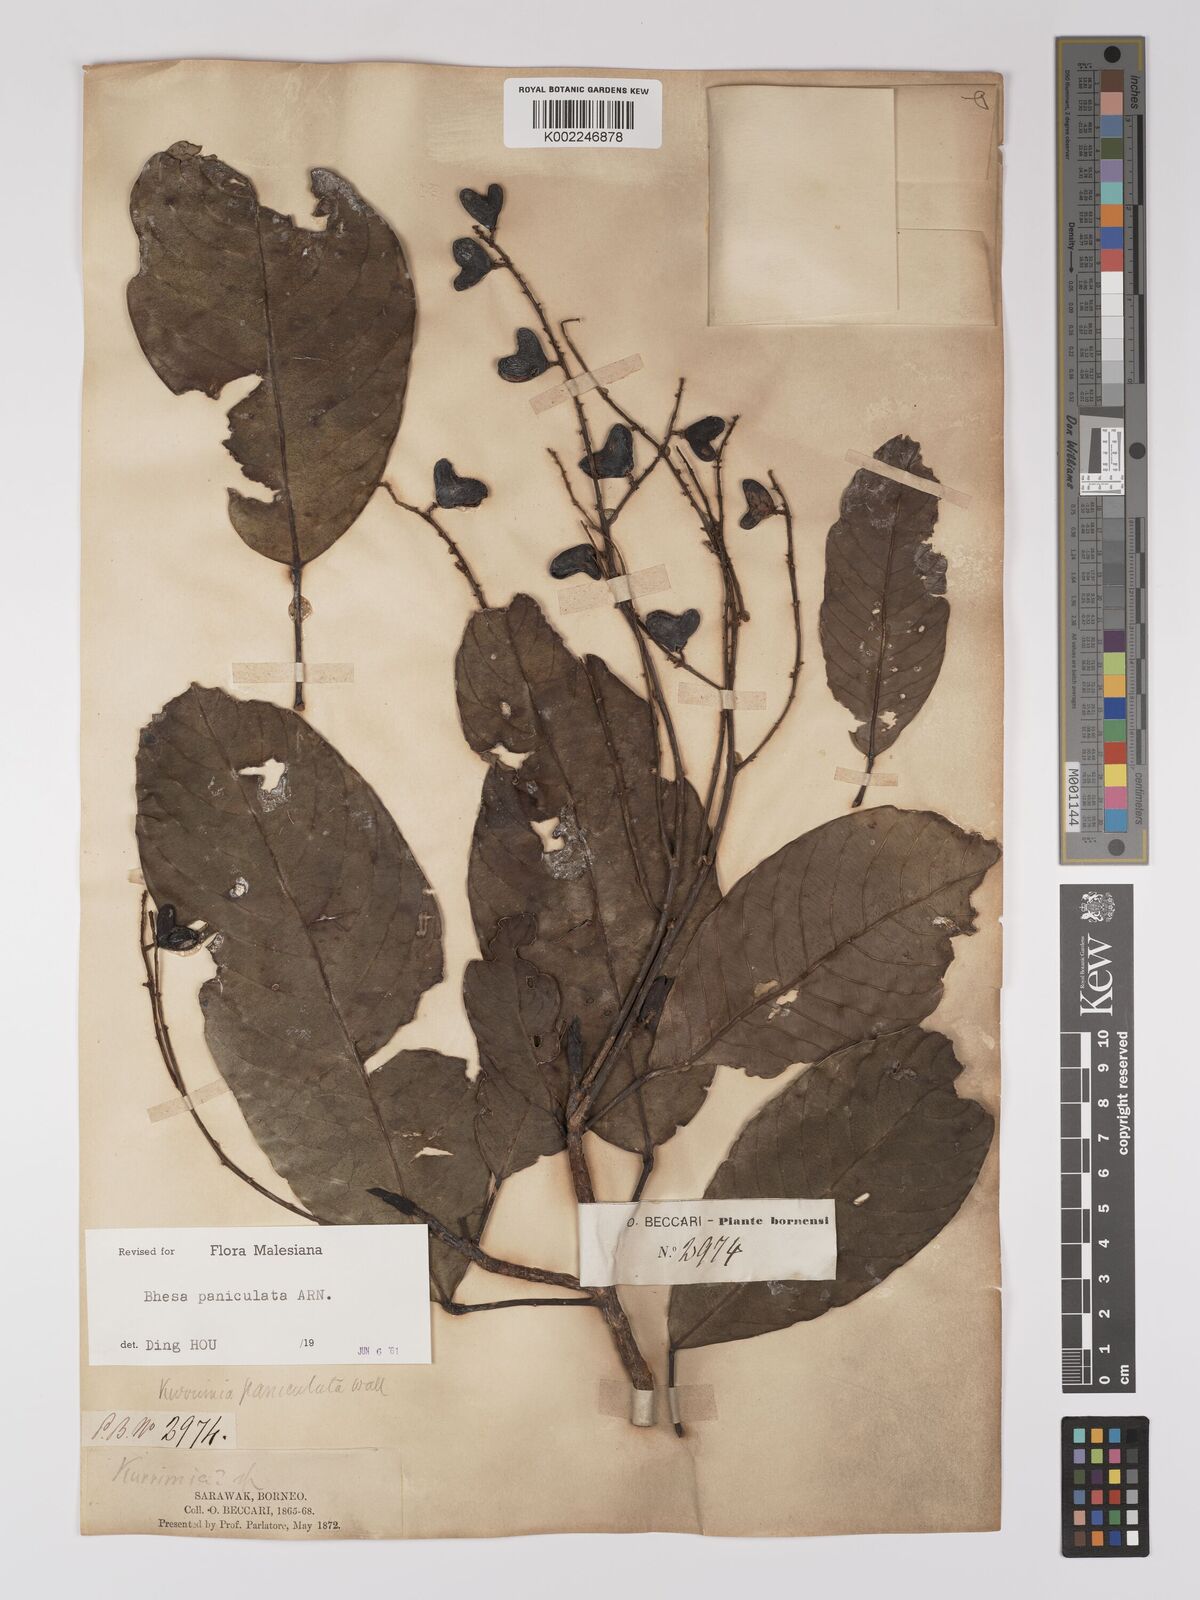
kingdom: Plantae
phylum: Tracheophyta
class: Magnoliopsida
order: Malpighiales
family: Centroplacaceae
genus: Bhesa
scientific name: Bhesa paniculata
